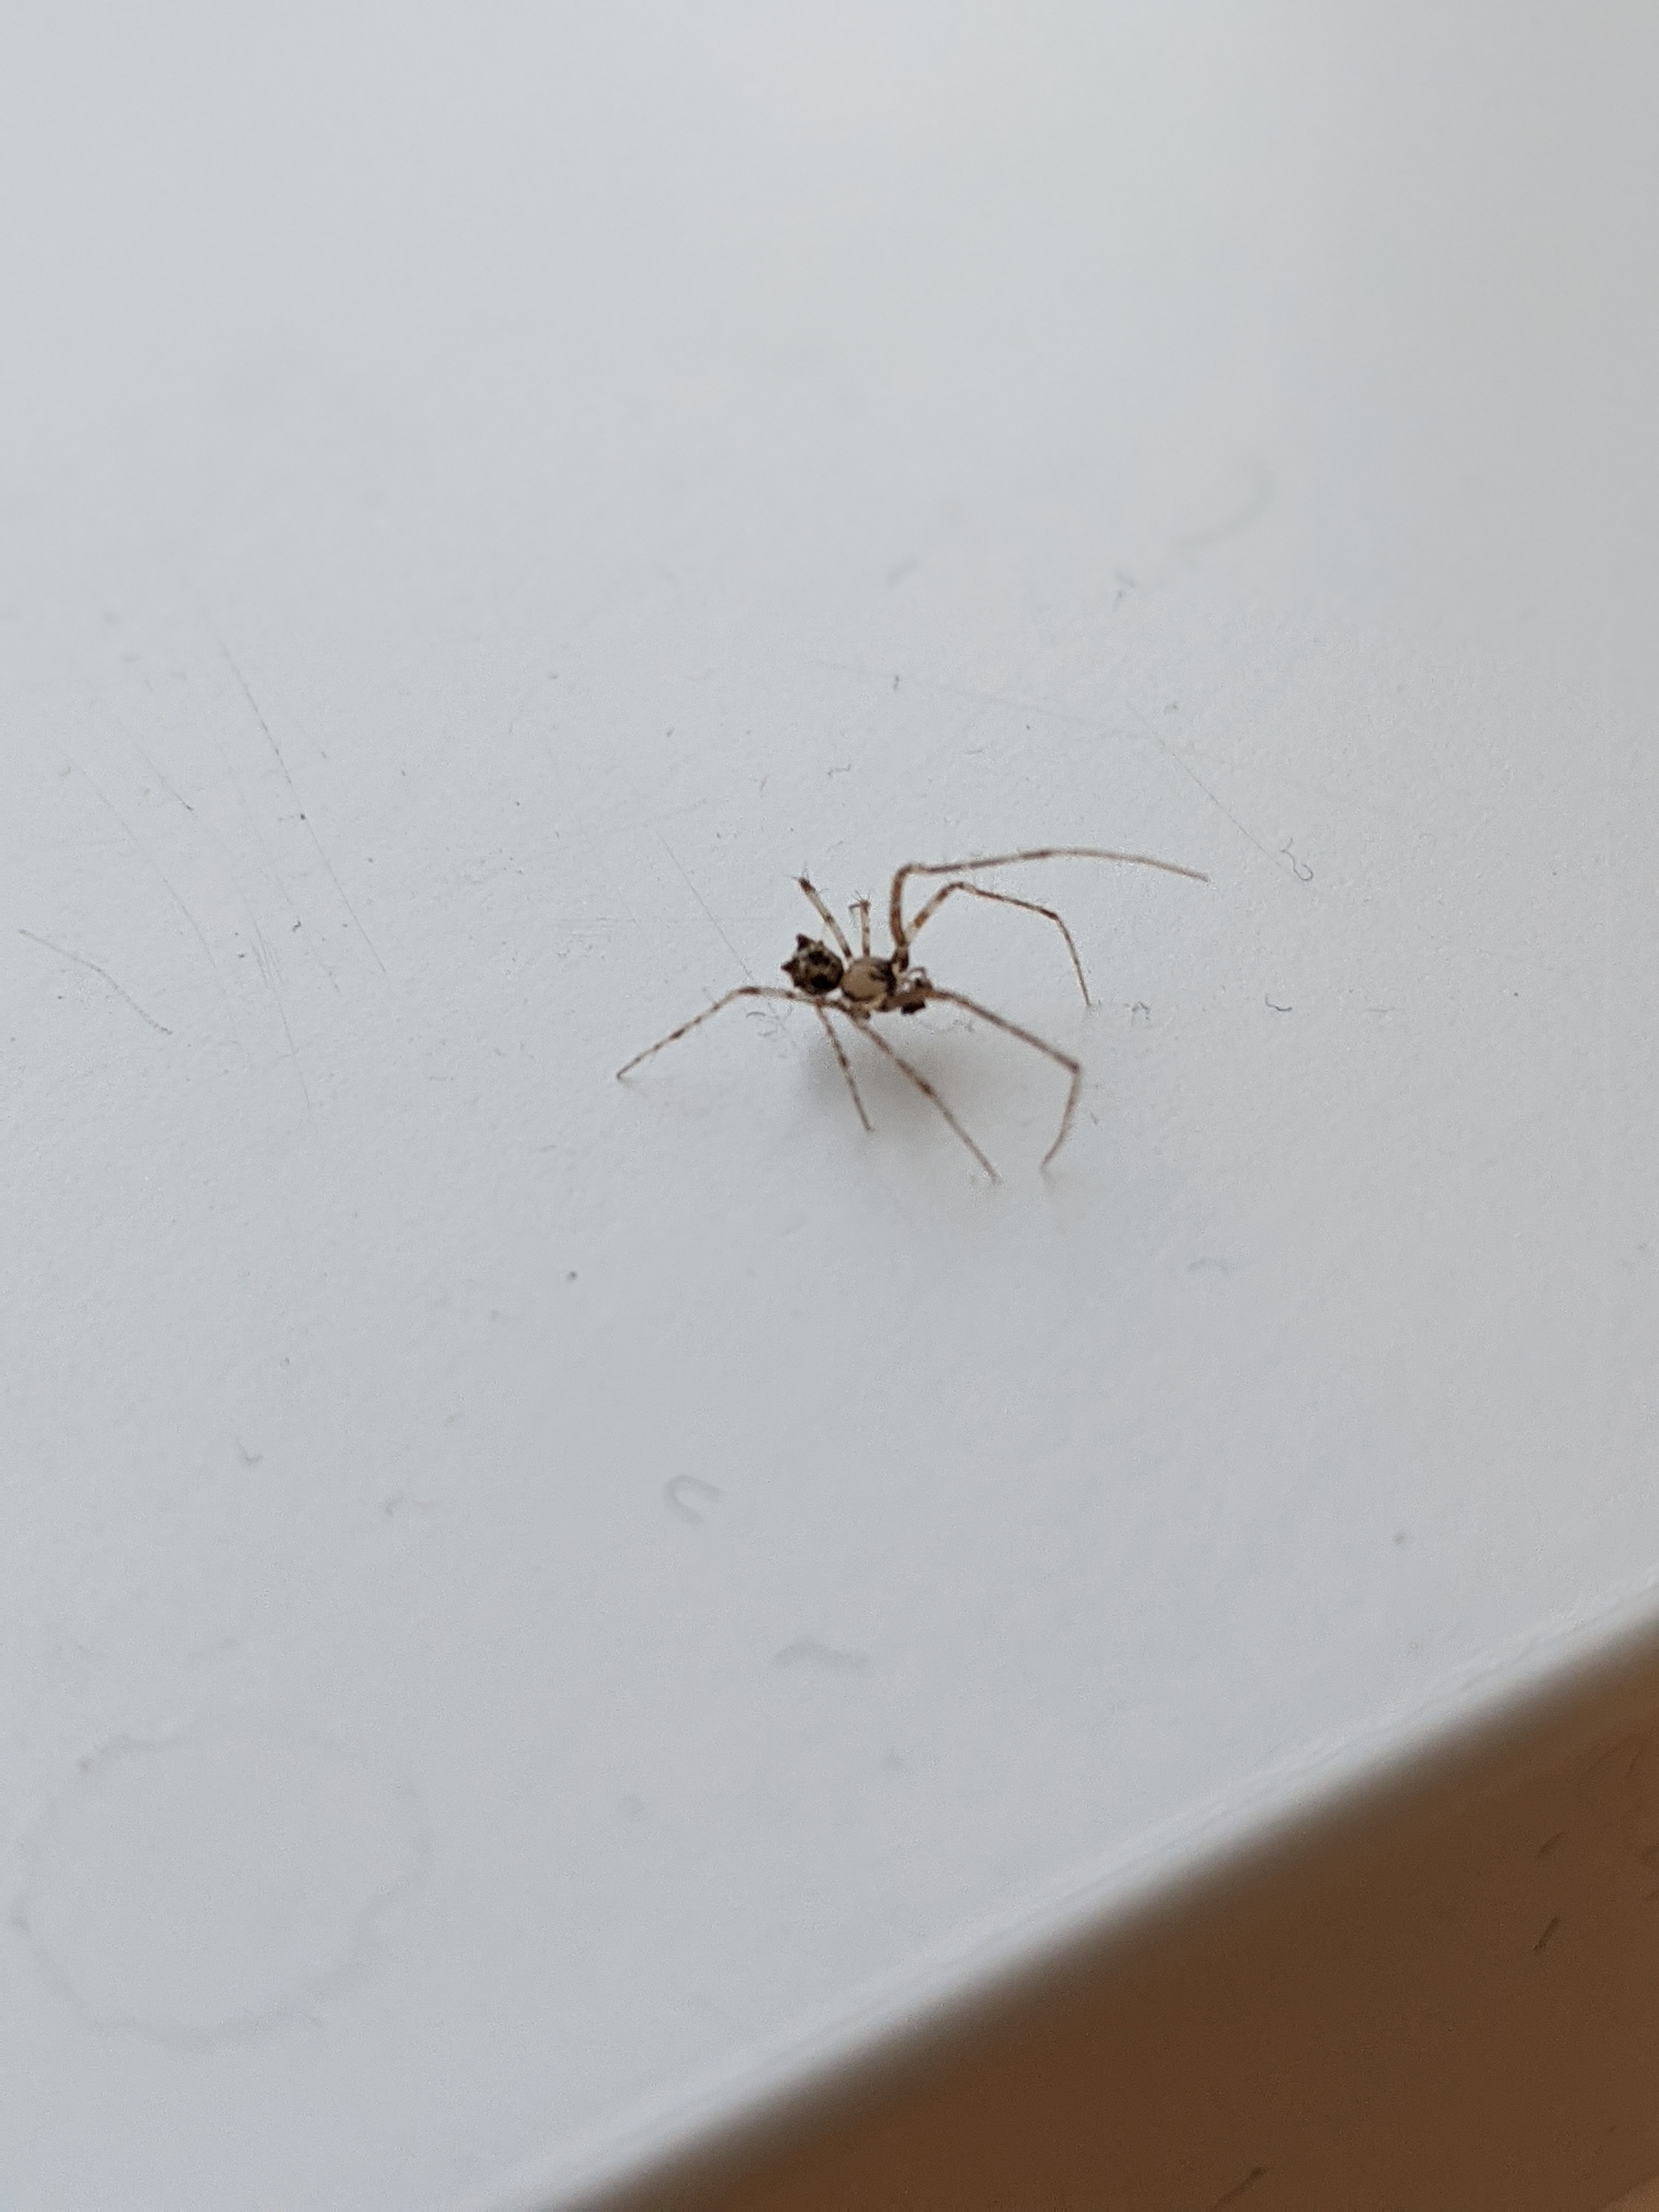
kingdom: Animalia
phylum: Arthropoda
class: Arachnida
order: Araneae
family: Mimetidae
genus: Ero
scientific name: Ero tuberculata
